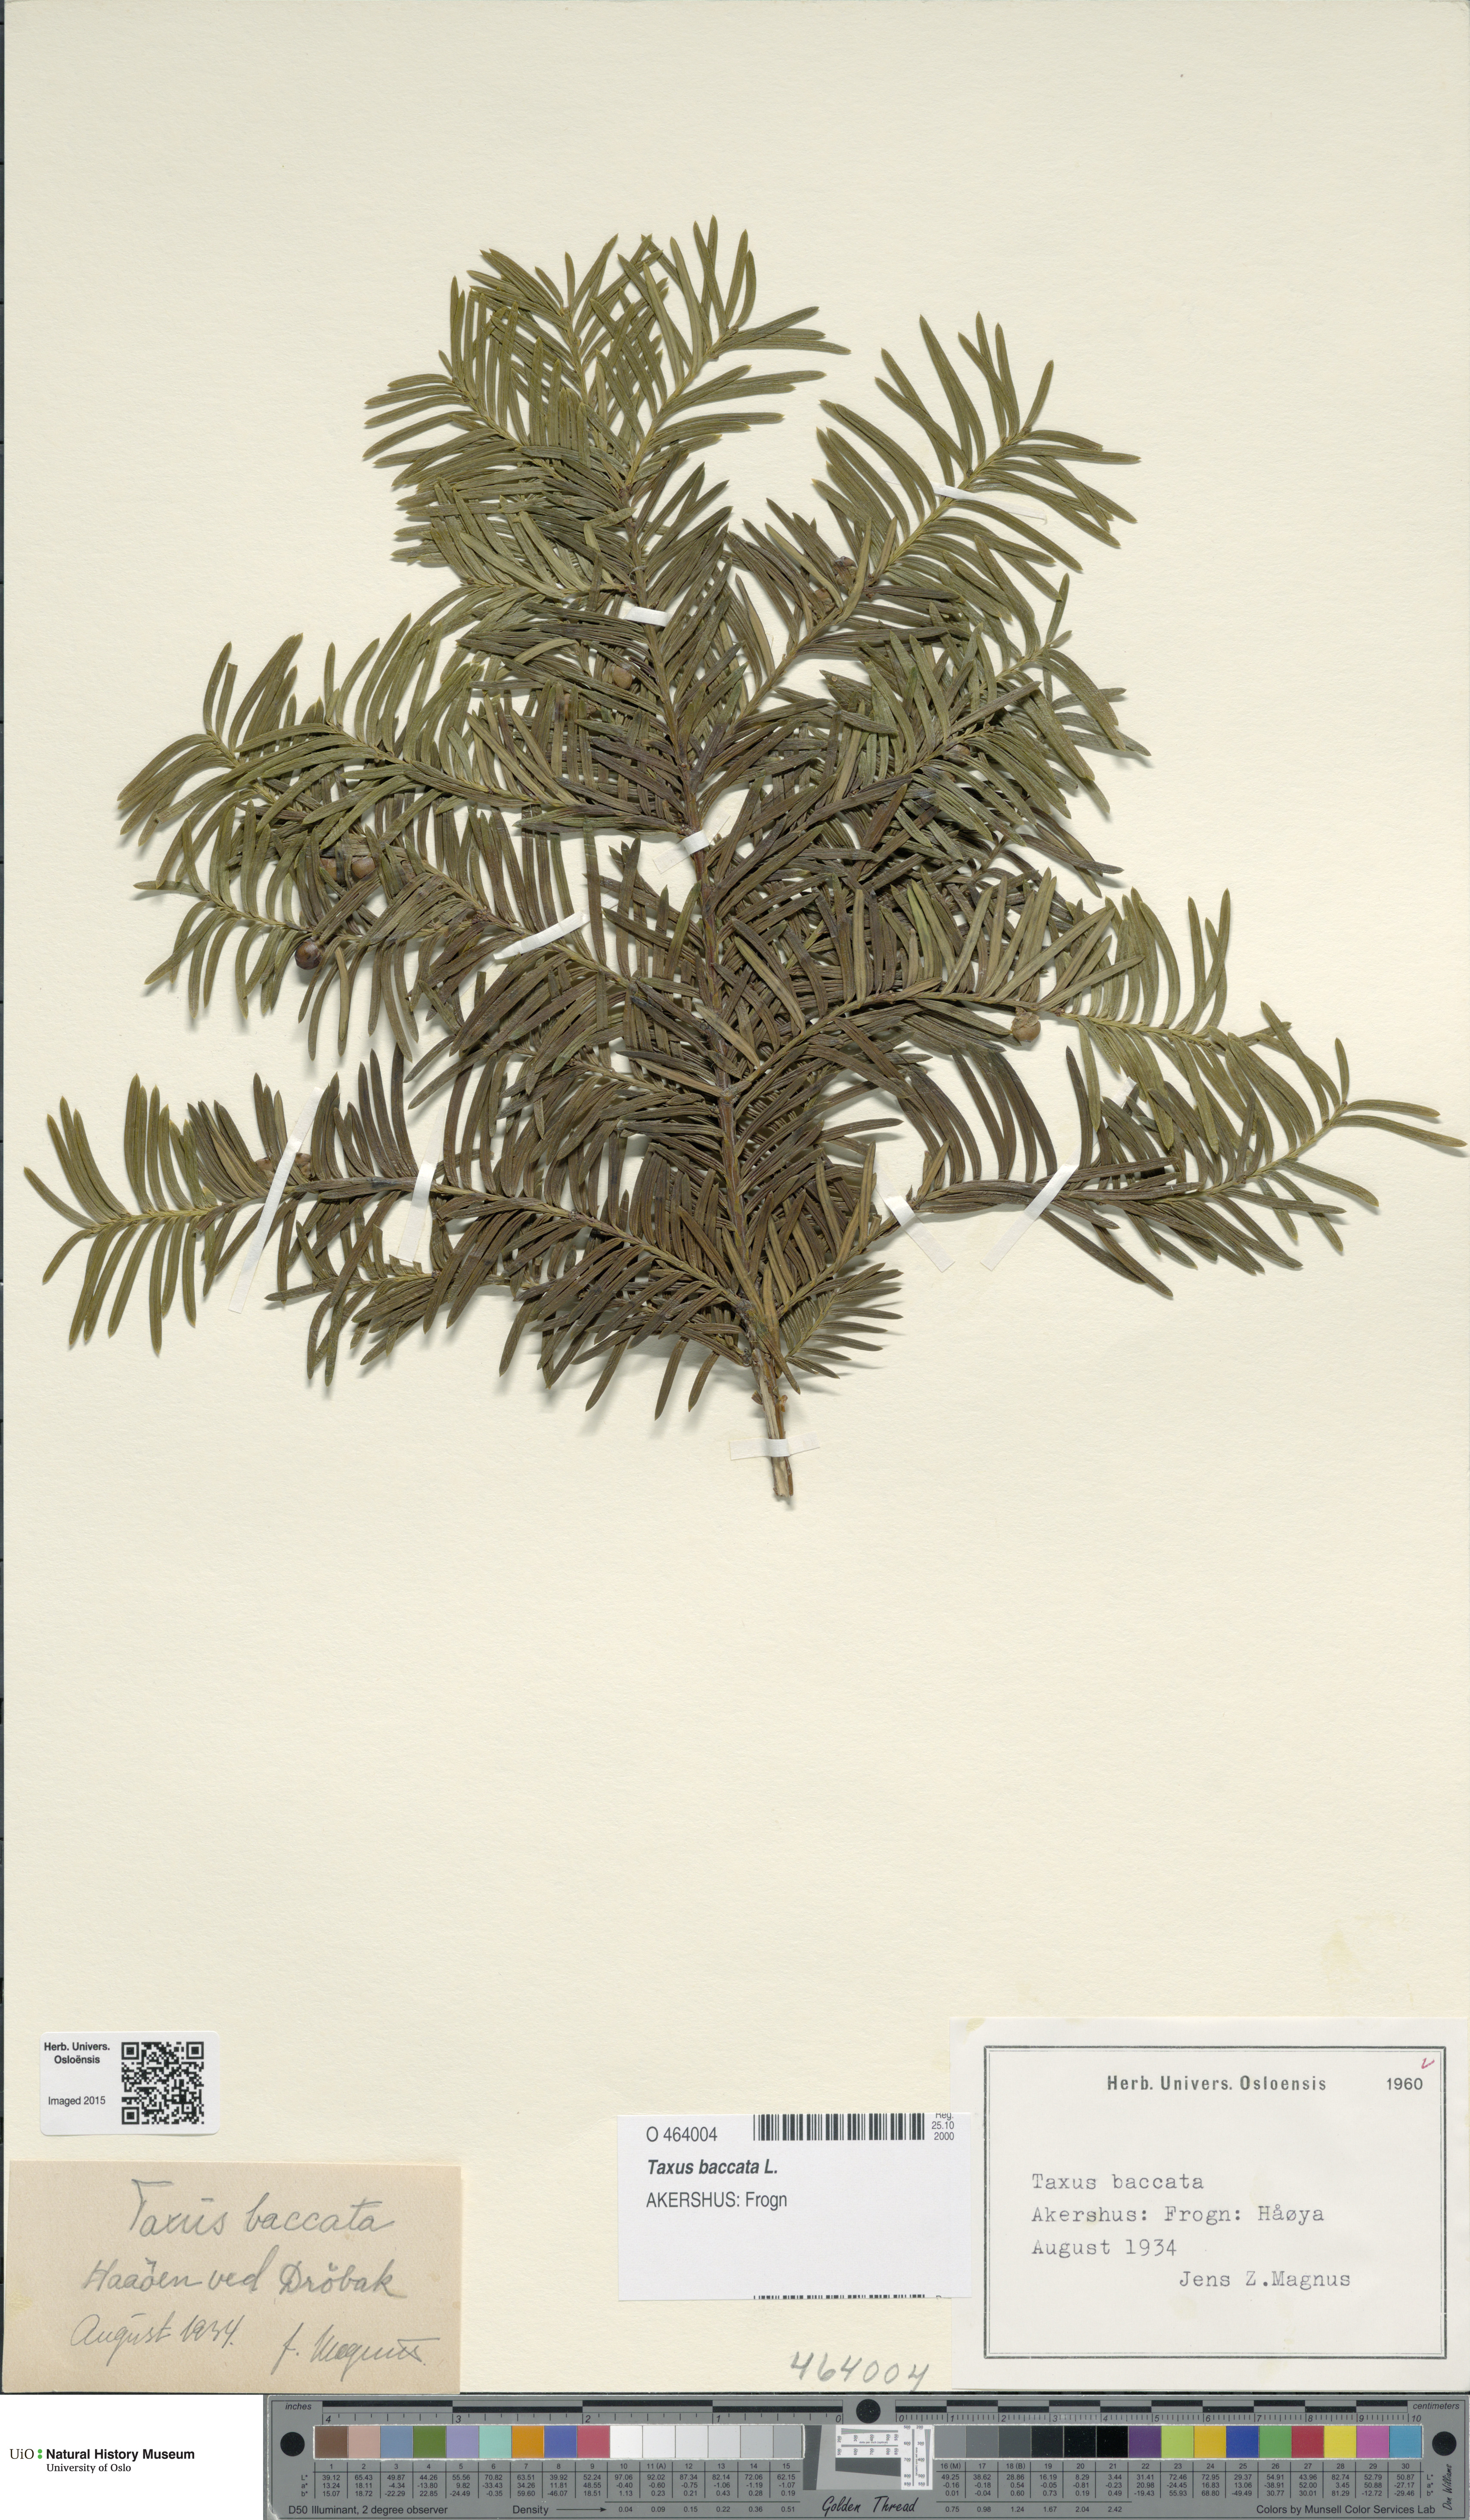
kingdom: Plantae
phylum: Tracheophyta
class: Pinopsida
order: Pinales
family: Taxaceae
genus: Taxus
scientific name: Taxus baccata
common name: Yew
